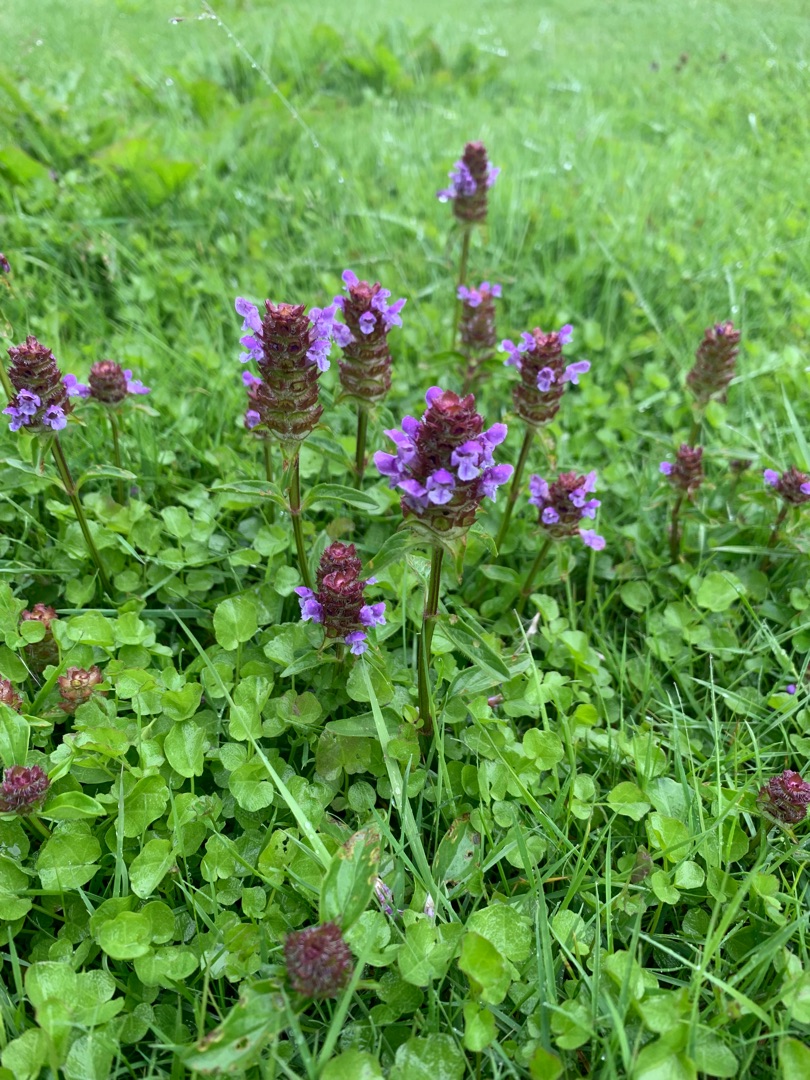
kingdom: Plantae
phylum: Tracheophyta
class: Magnoliopsida
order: Lamiales
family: Lamiaceae
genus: Prunella
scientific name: Prunella vulgaris
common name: Almindelig brunelle
